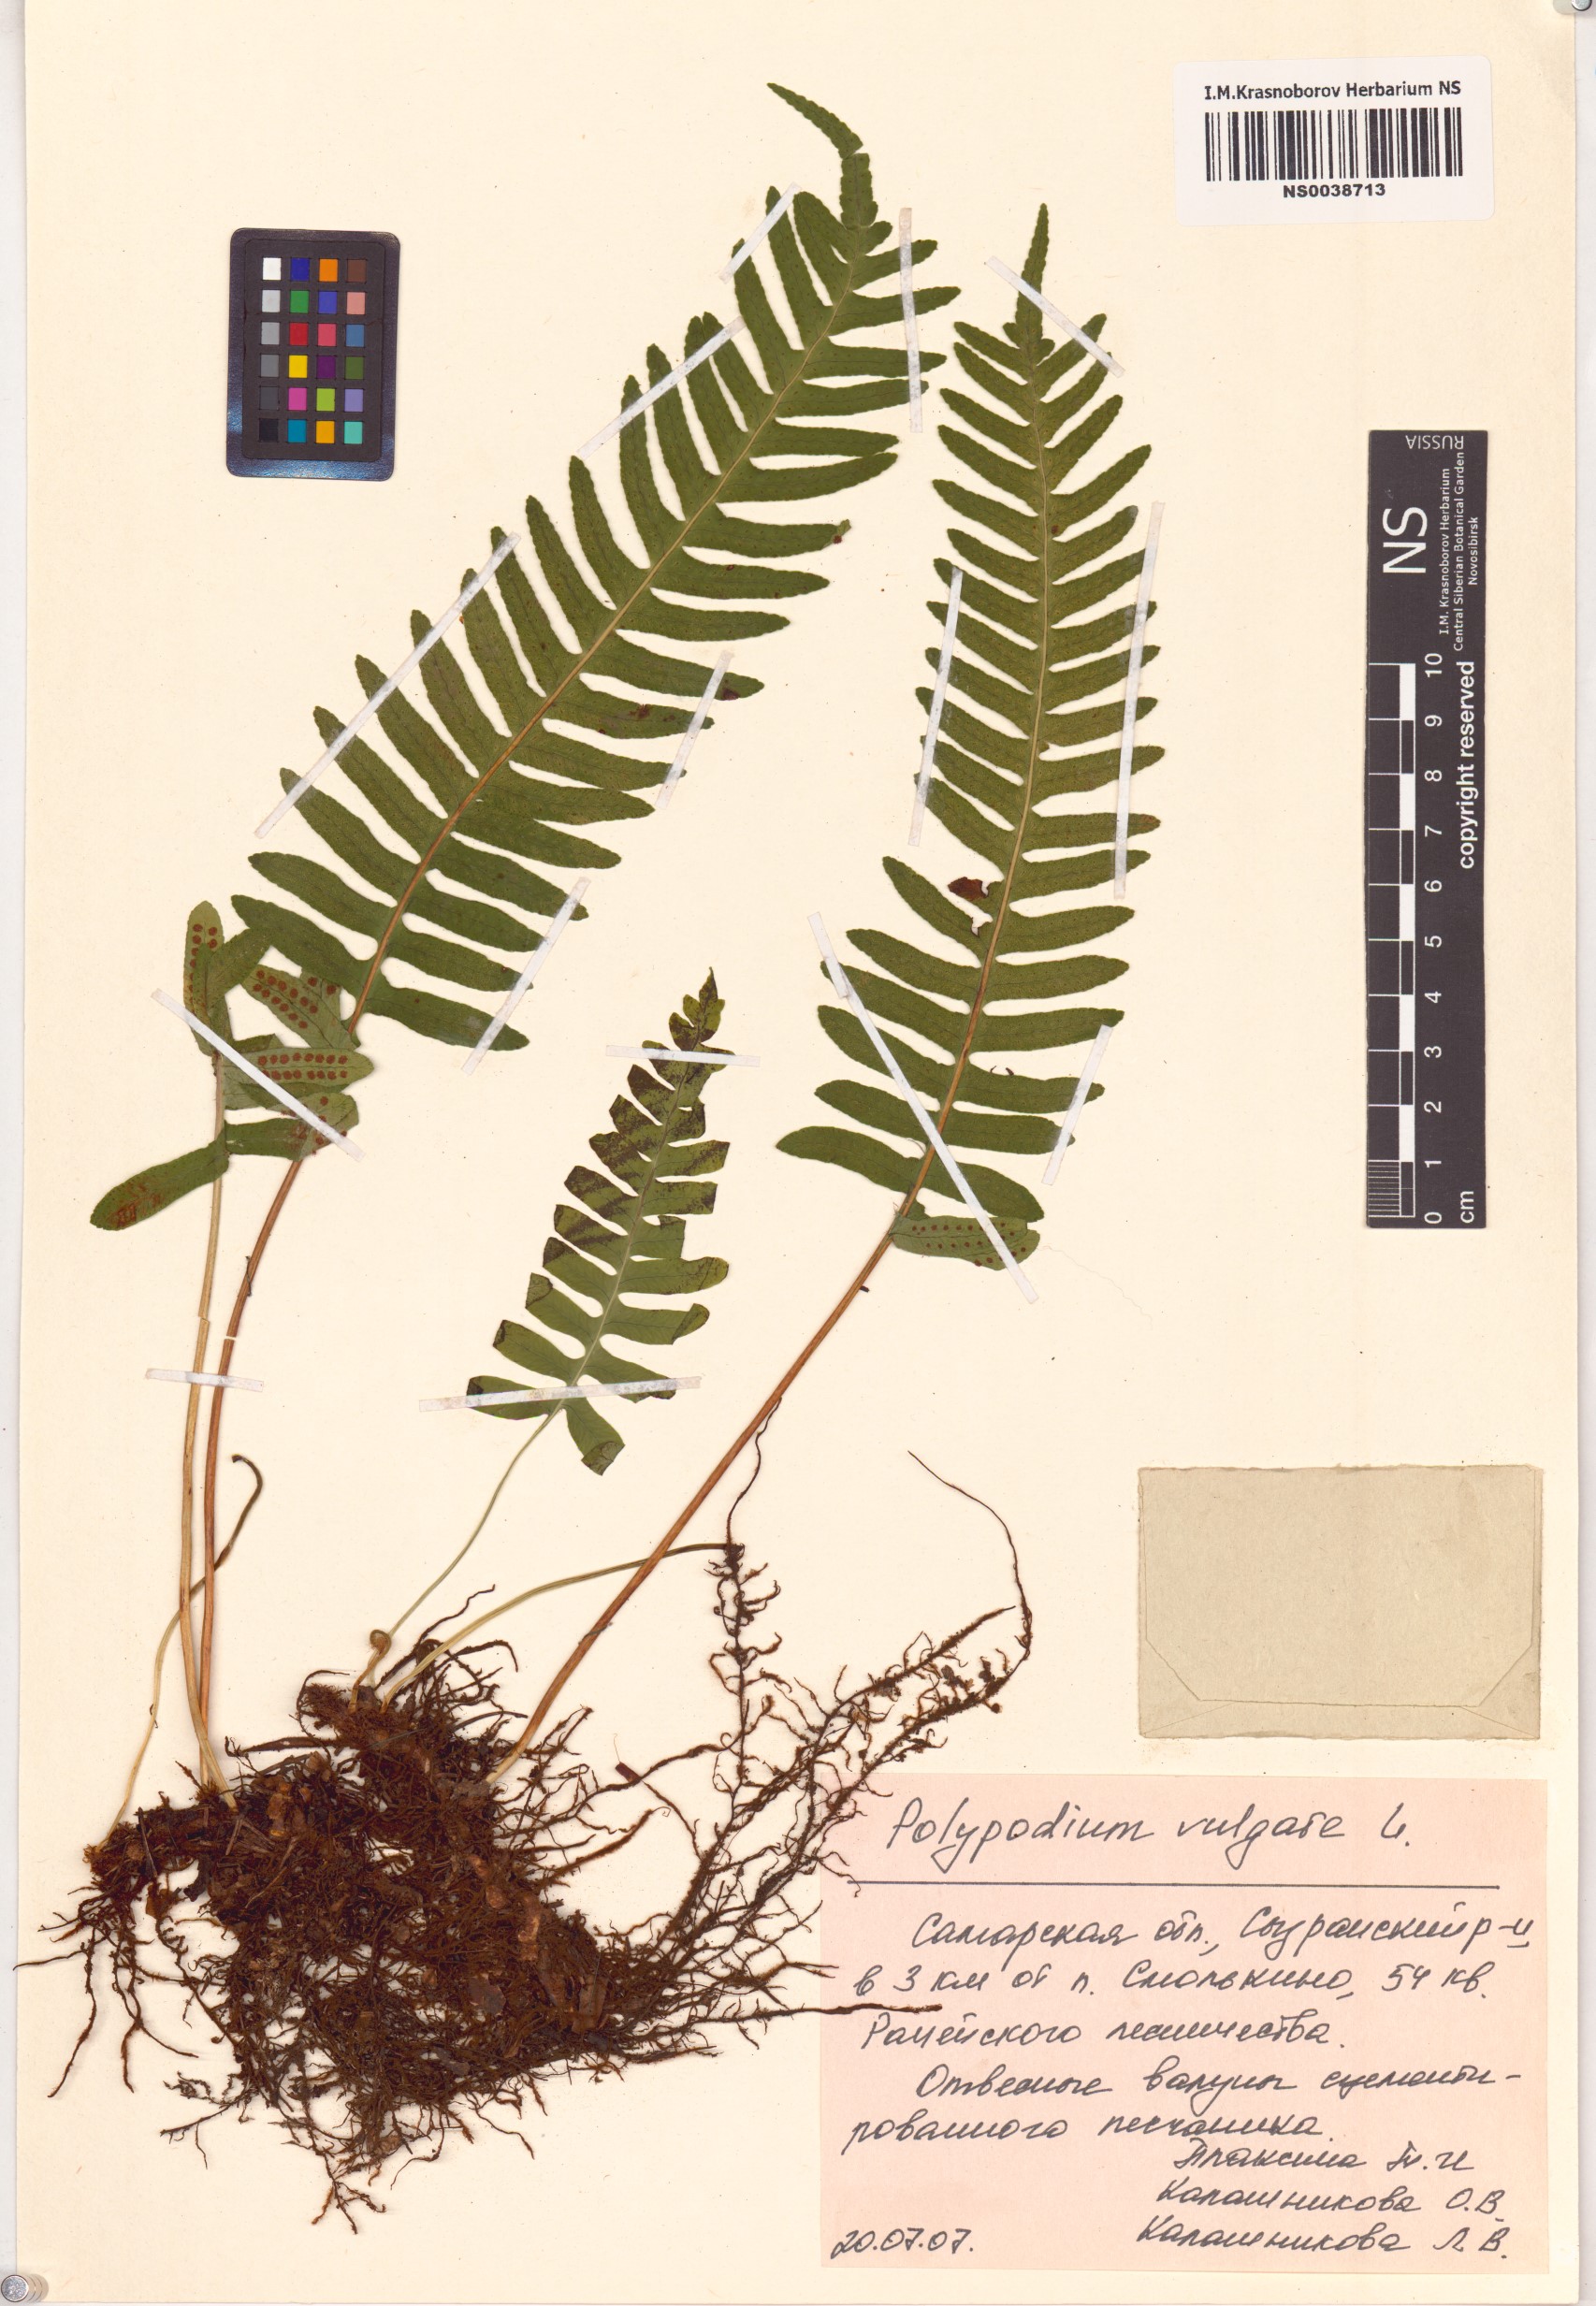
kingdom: Plantae
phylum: Tracheophyta
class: Polypodiopsida
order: Polypodiales
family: Polypodiaceae
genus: Polypodium
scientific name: Polypodium vulgare
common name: Common polypody
